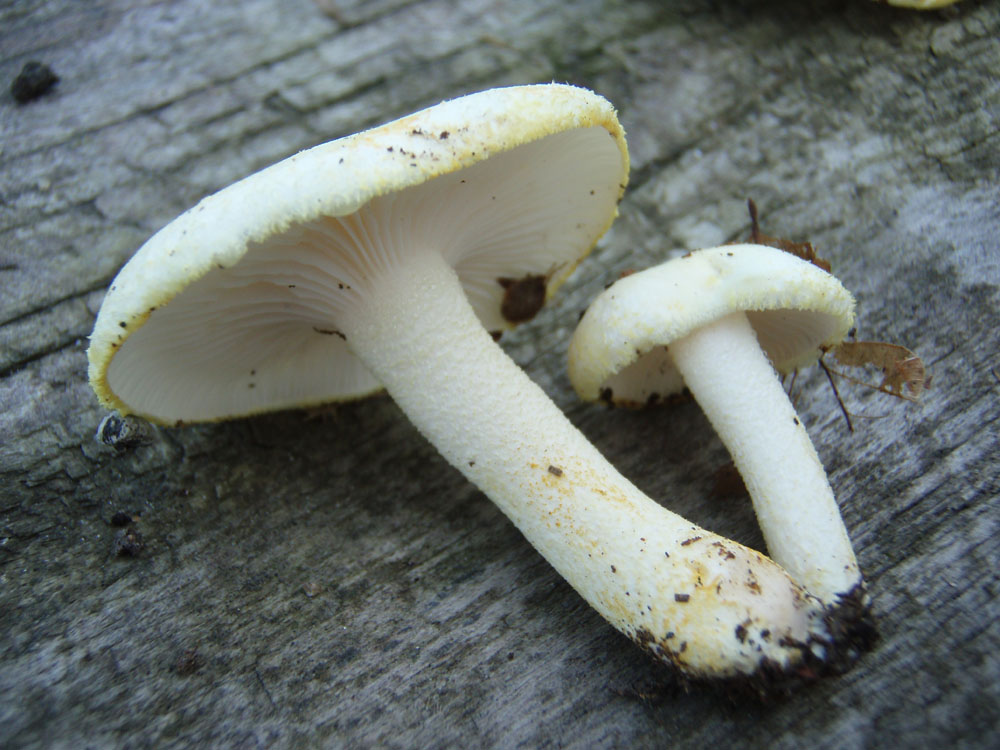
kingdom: Fungi
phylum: Basidiomycota
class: Agaricomycetes
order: Agaricales
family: Hygrophoraceae
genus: Hygrophorus
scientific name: Hygrophorus chrysodon
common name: gulfnugget sneglehat
